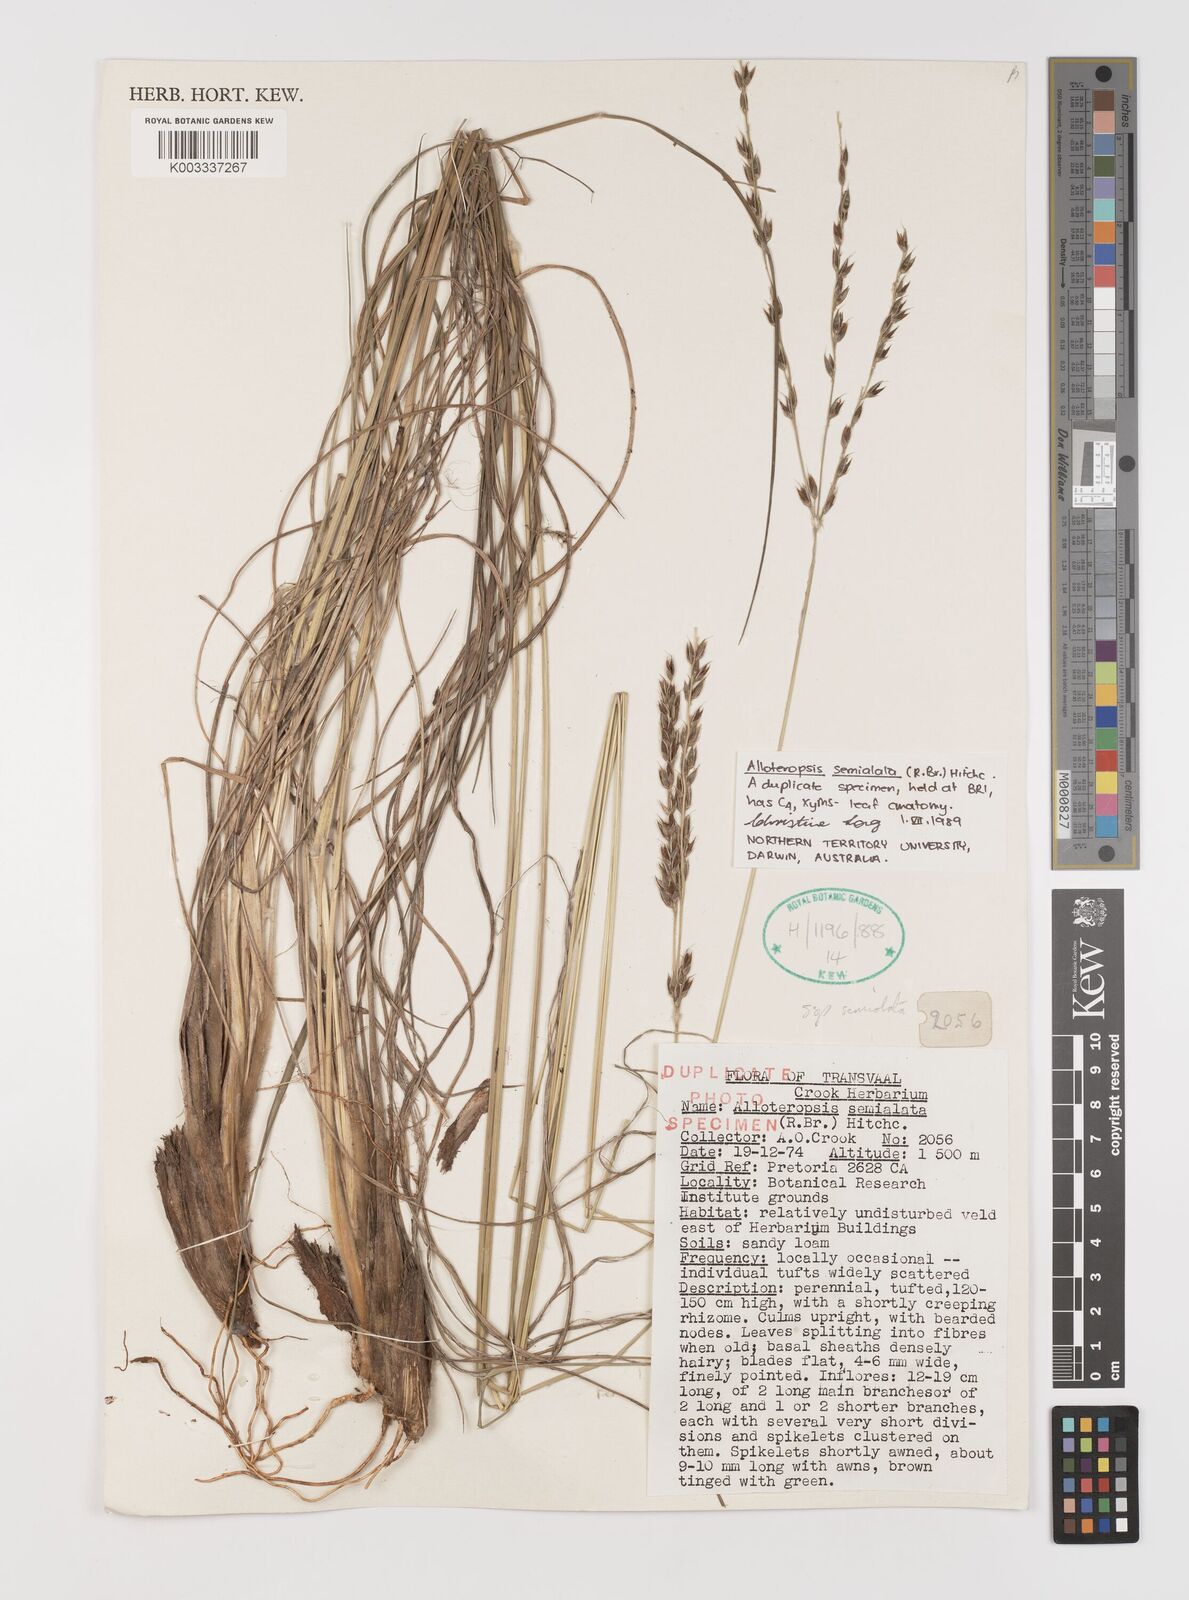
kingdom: Plantae
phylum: Tracheophyta
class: Liliopsida
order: Poales
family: Poaceae
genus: Alloteropsis
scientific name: Alloteropsis semialata
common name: Cockatoo grass
